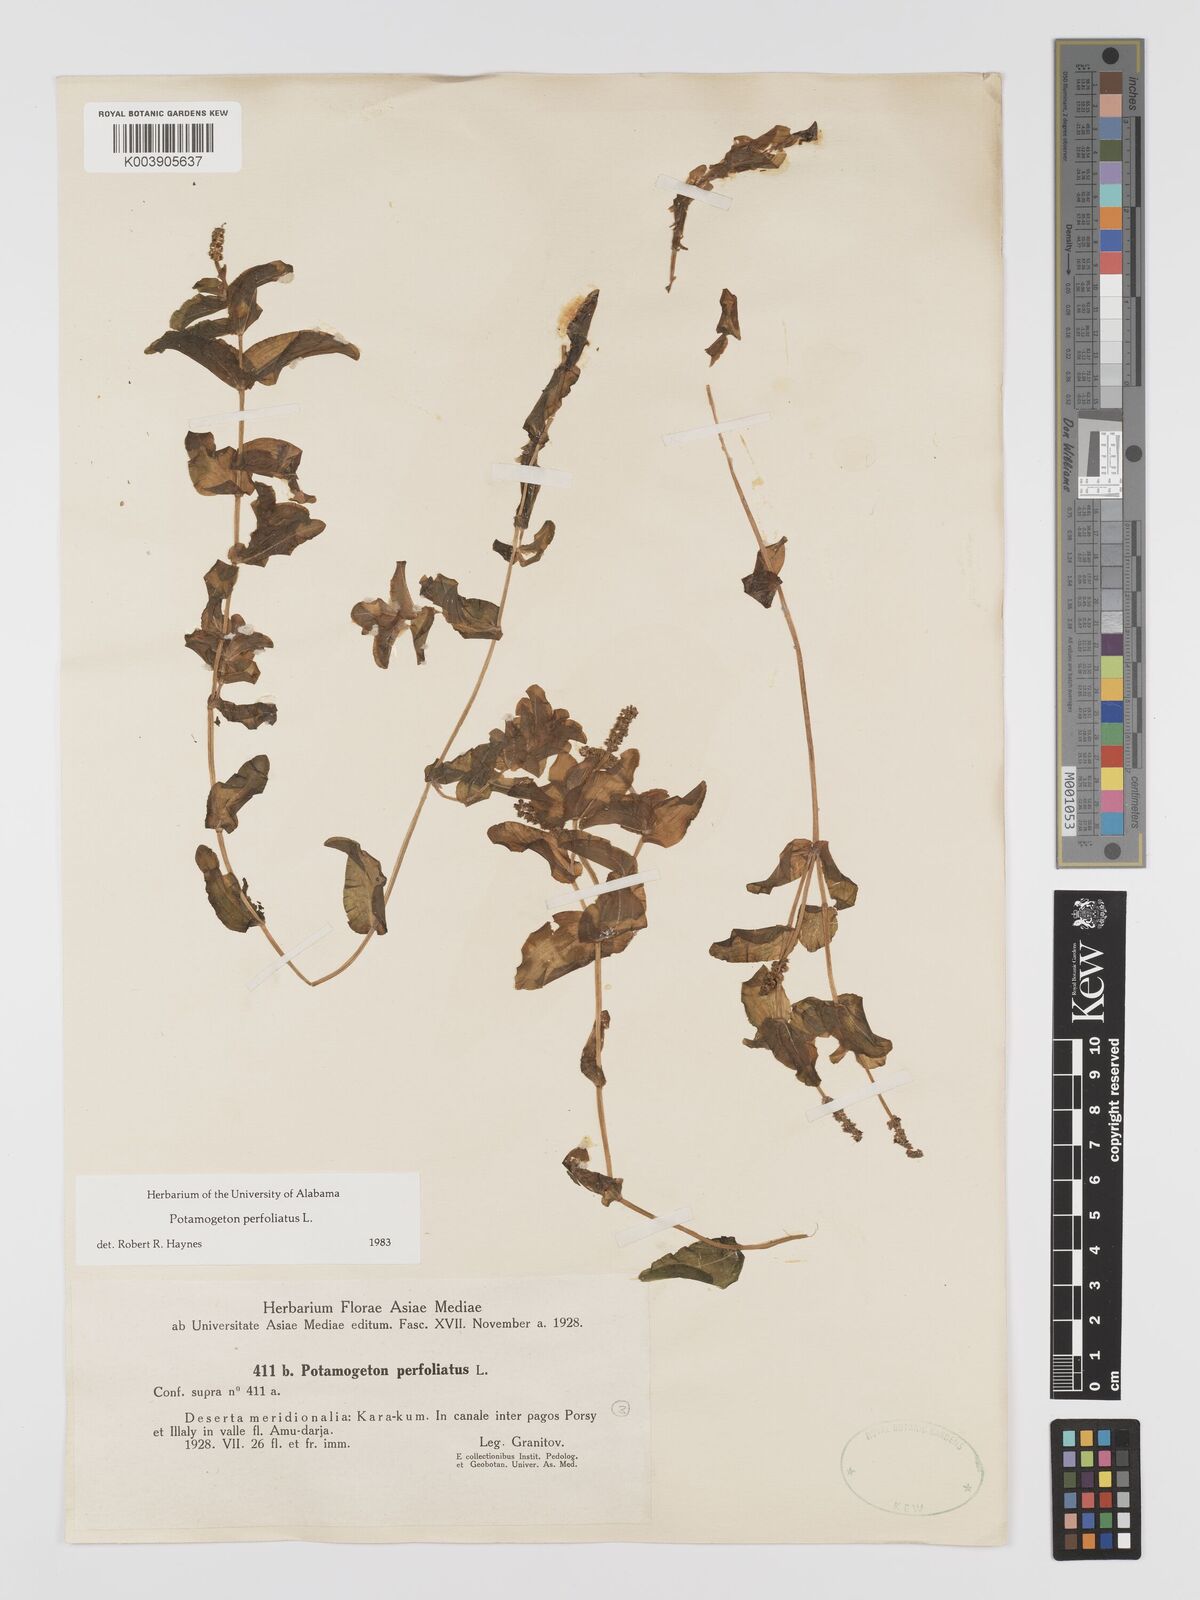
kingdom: Plantae
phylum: Tracheophyta
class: Liliopsida
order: Alismatales
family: Potamogetonaceae
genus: Potamogeton
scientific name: Potamogeton perfoliatus
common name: Perfoliate pondweed
